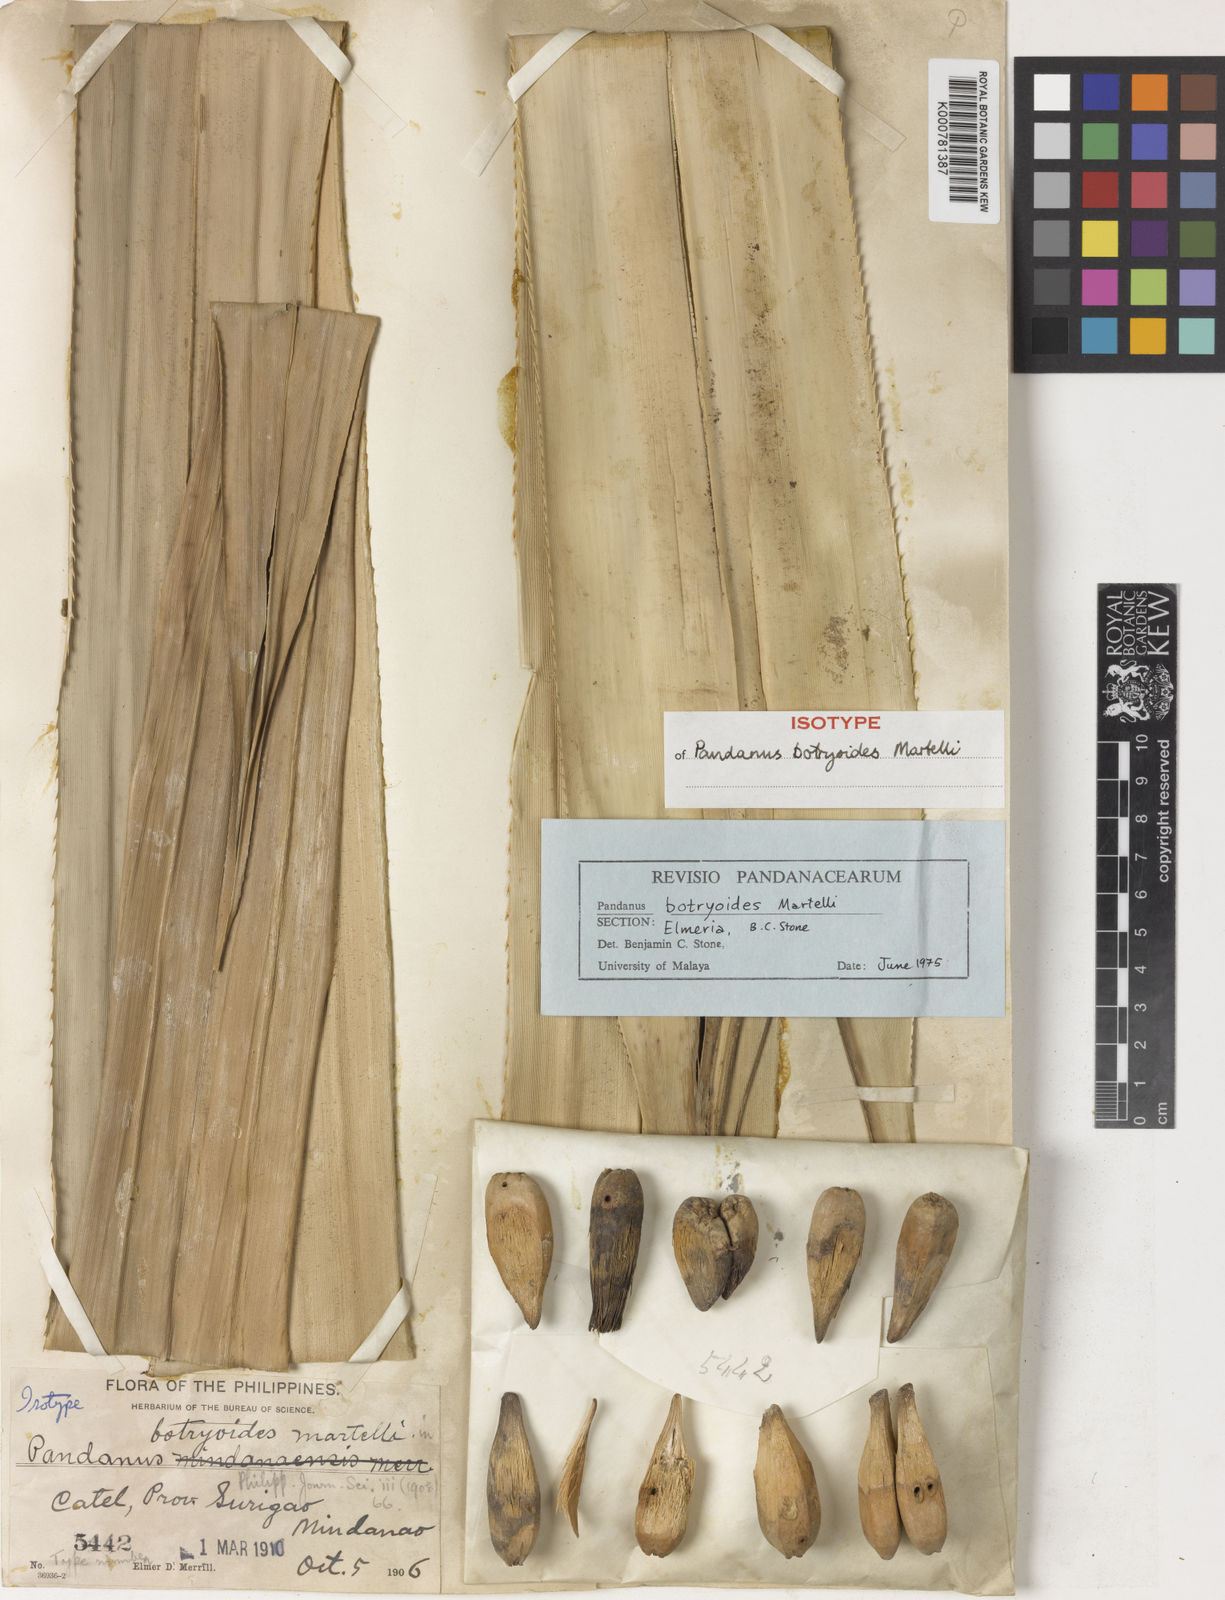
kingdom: Plantae
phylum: Tracheophyta
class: Liliopsida
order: Pandanales
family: Pandanaceae
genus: Pandanus
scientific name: Pandanus
